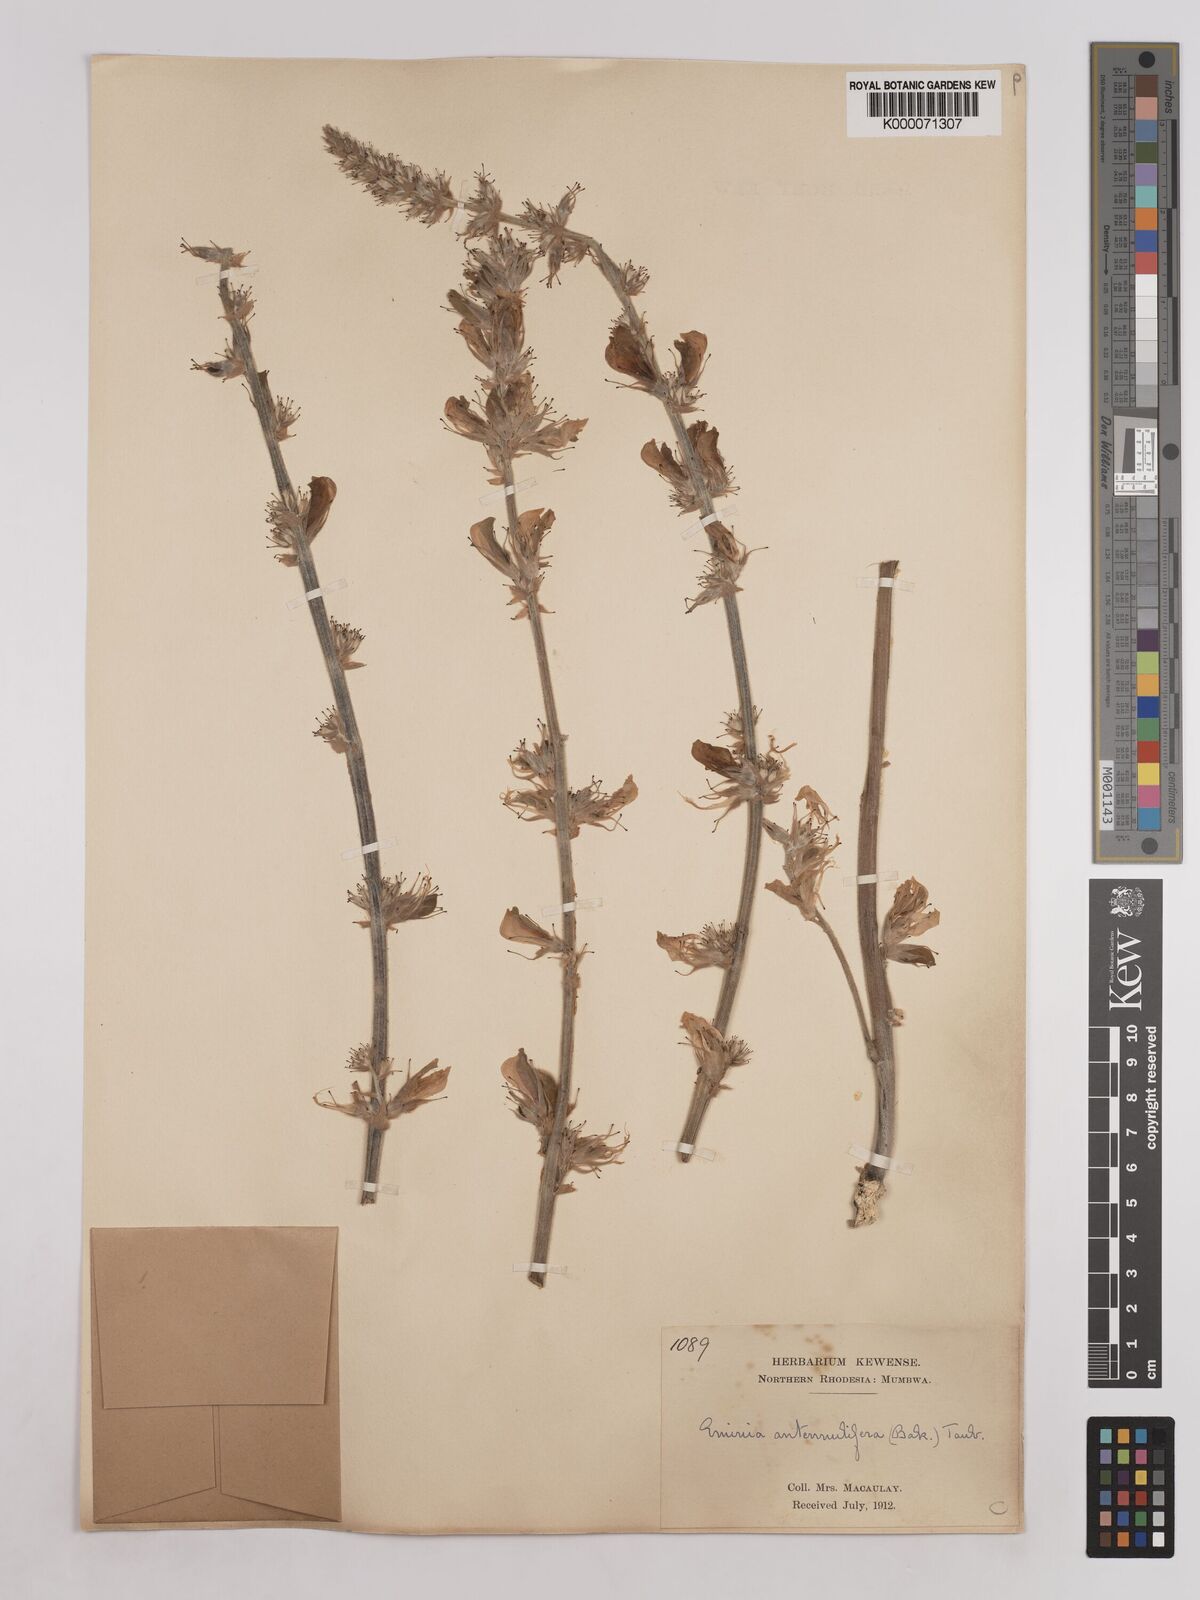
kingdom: Plantae
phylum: Tracheophyta
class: Magnoliopsida
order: Fabales
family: Fabaceae
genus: Eminia
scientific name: Eminia antennulifera
